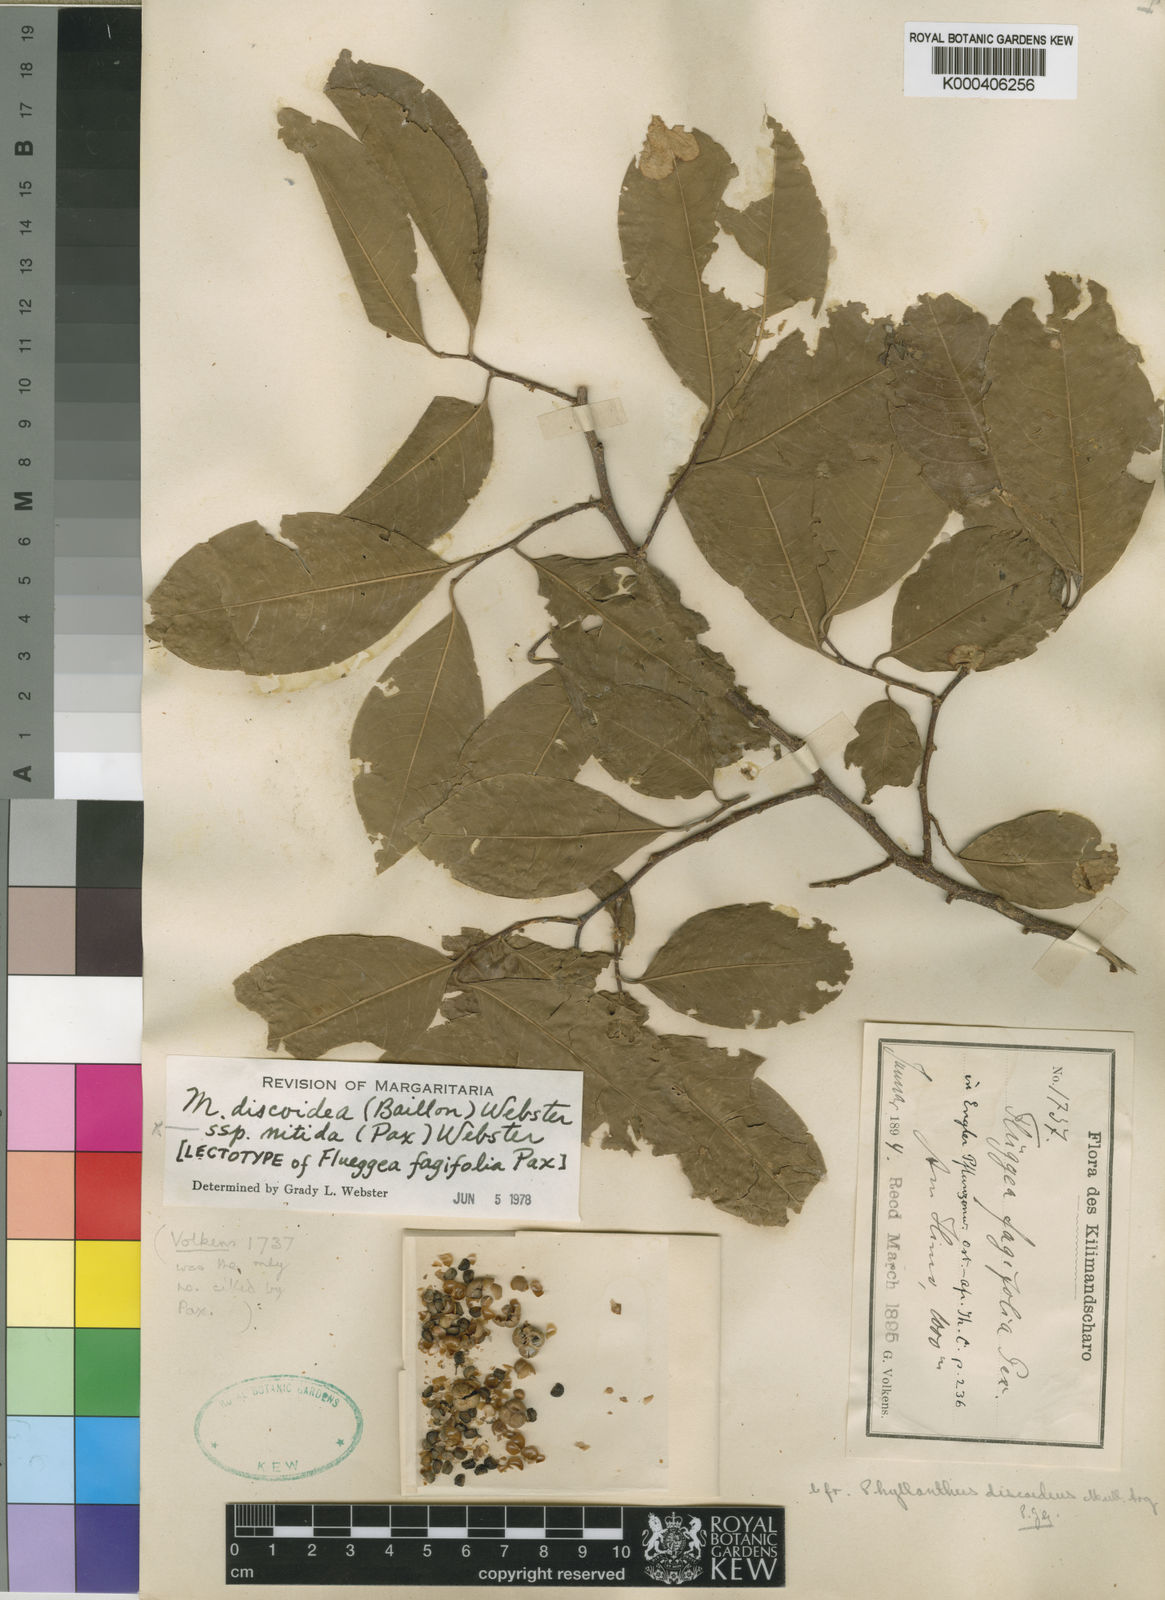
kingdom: Plantae
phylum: Tracheophyta
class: Magnoliopsida
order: Malpighiales
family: Phyllanthaceae
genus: Margaritaria
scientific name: Margaritaria
